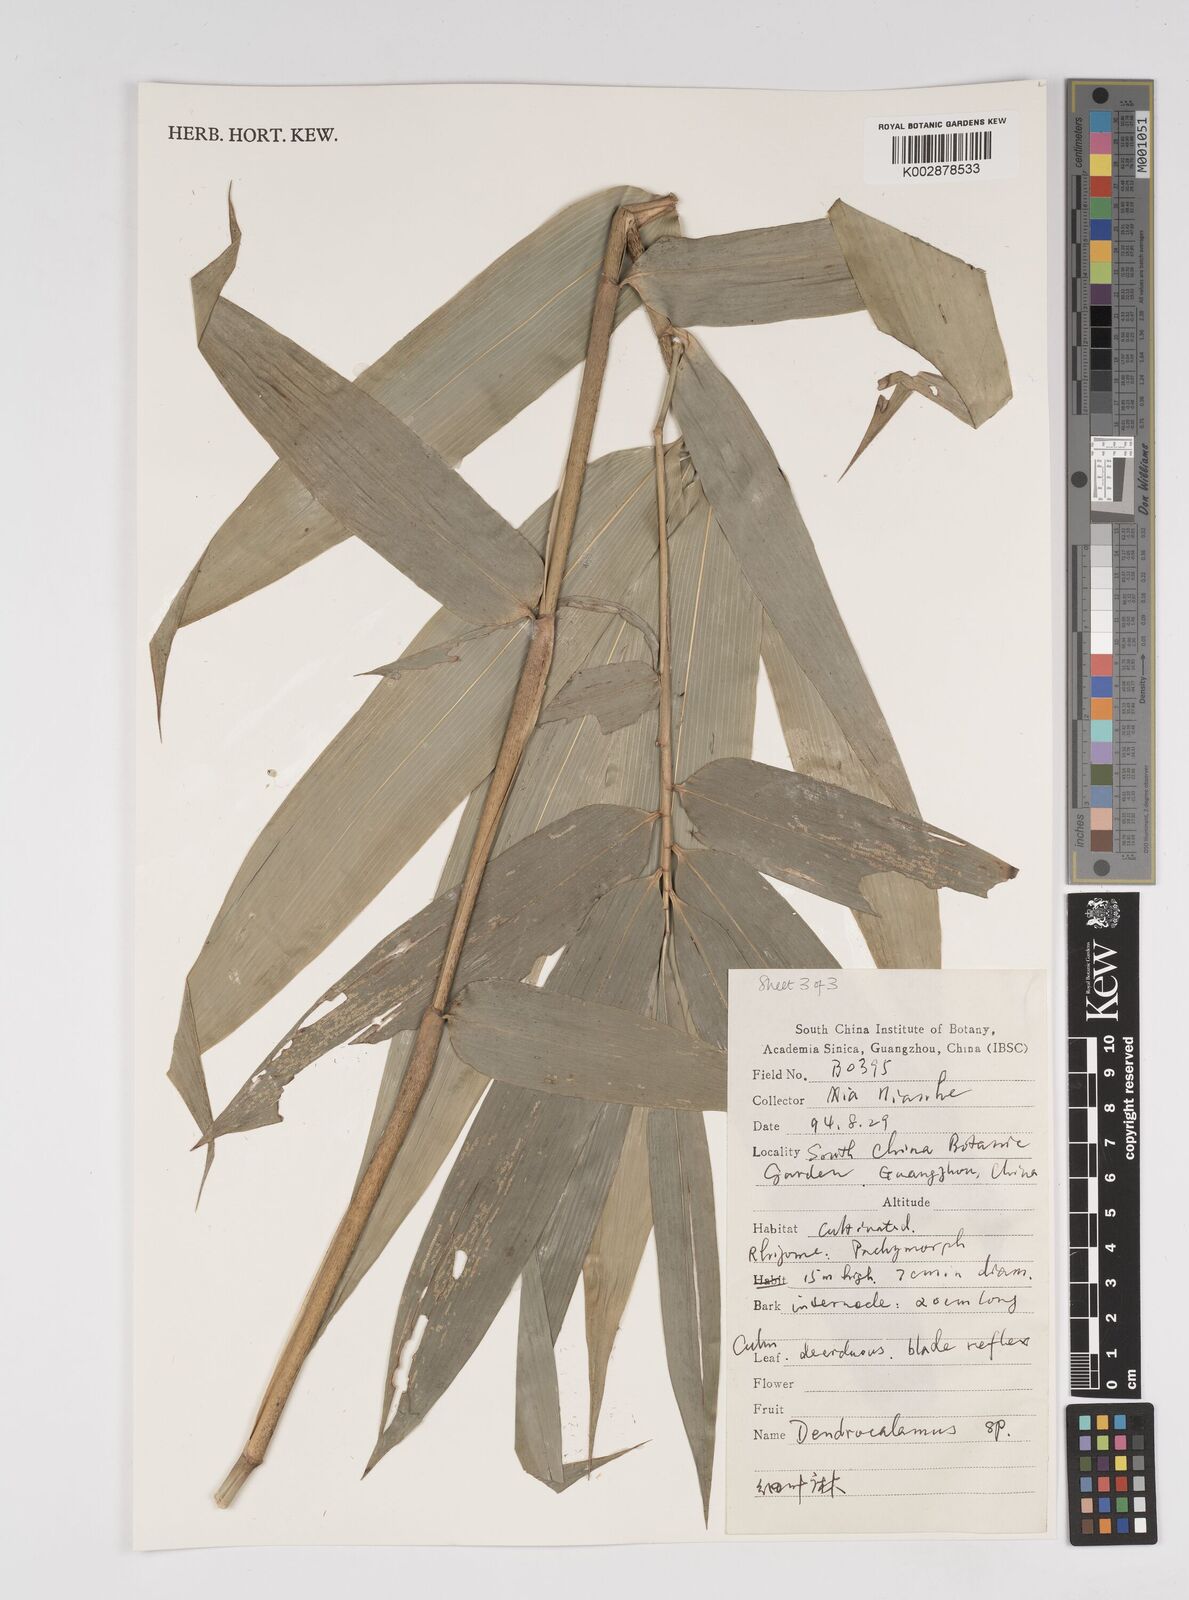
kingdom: Plantae
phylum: Tracheophyta
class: Liliopsida
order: Poales
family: Poaceae
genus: Dendrocalamus
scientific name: Dendrocalamus
